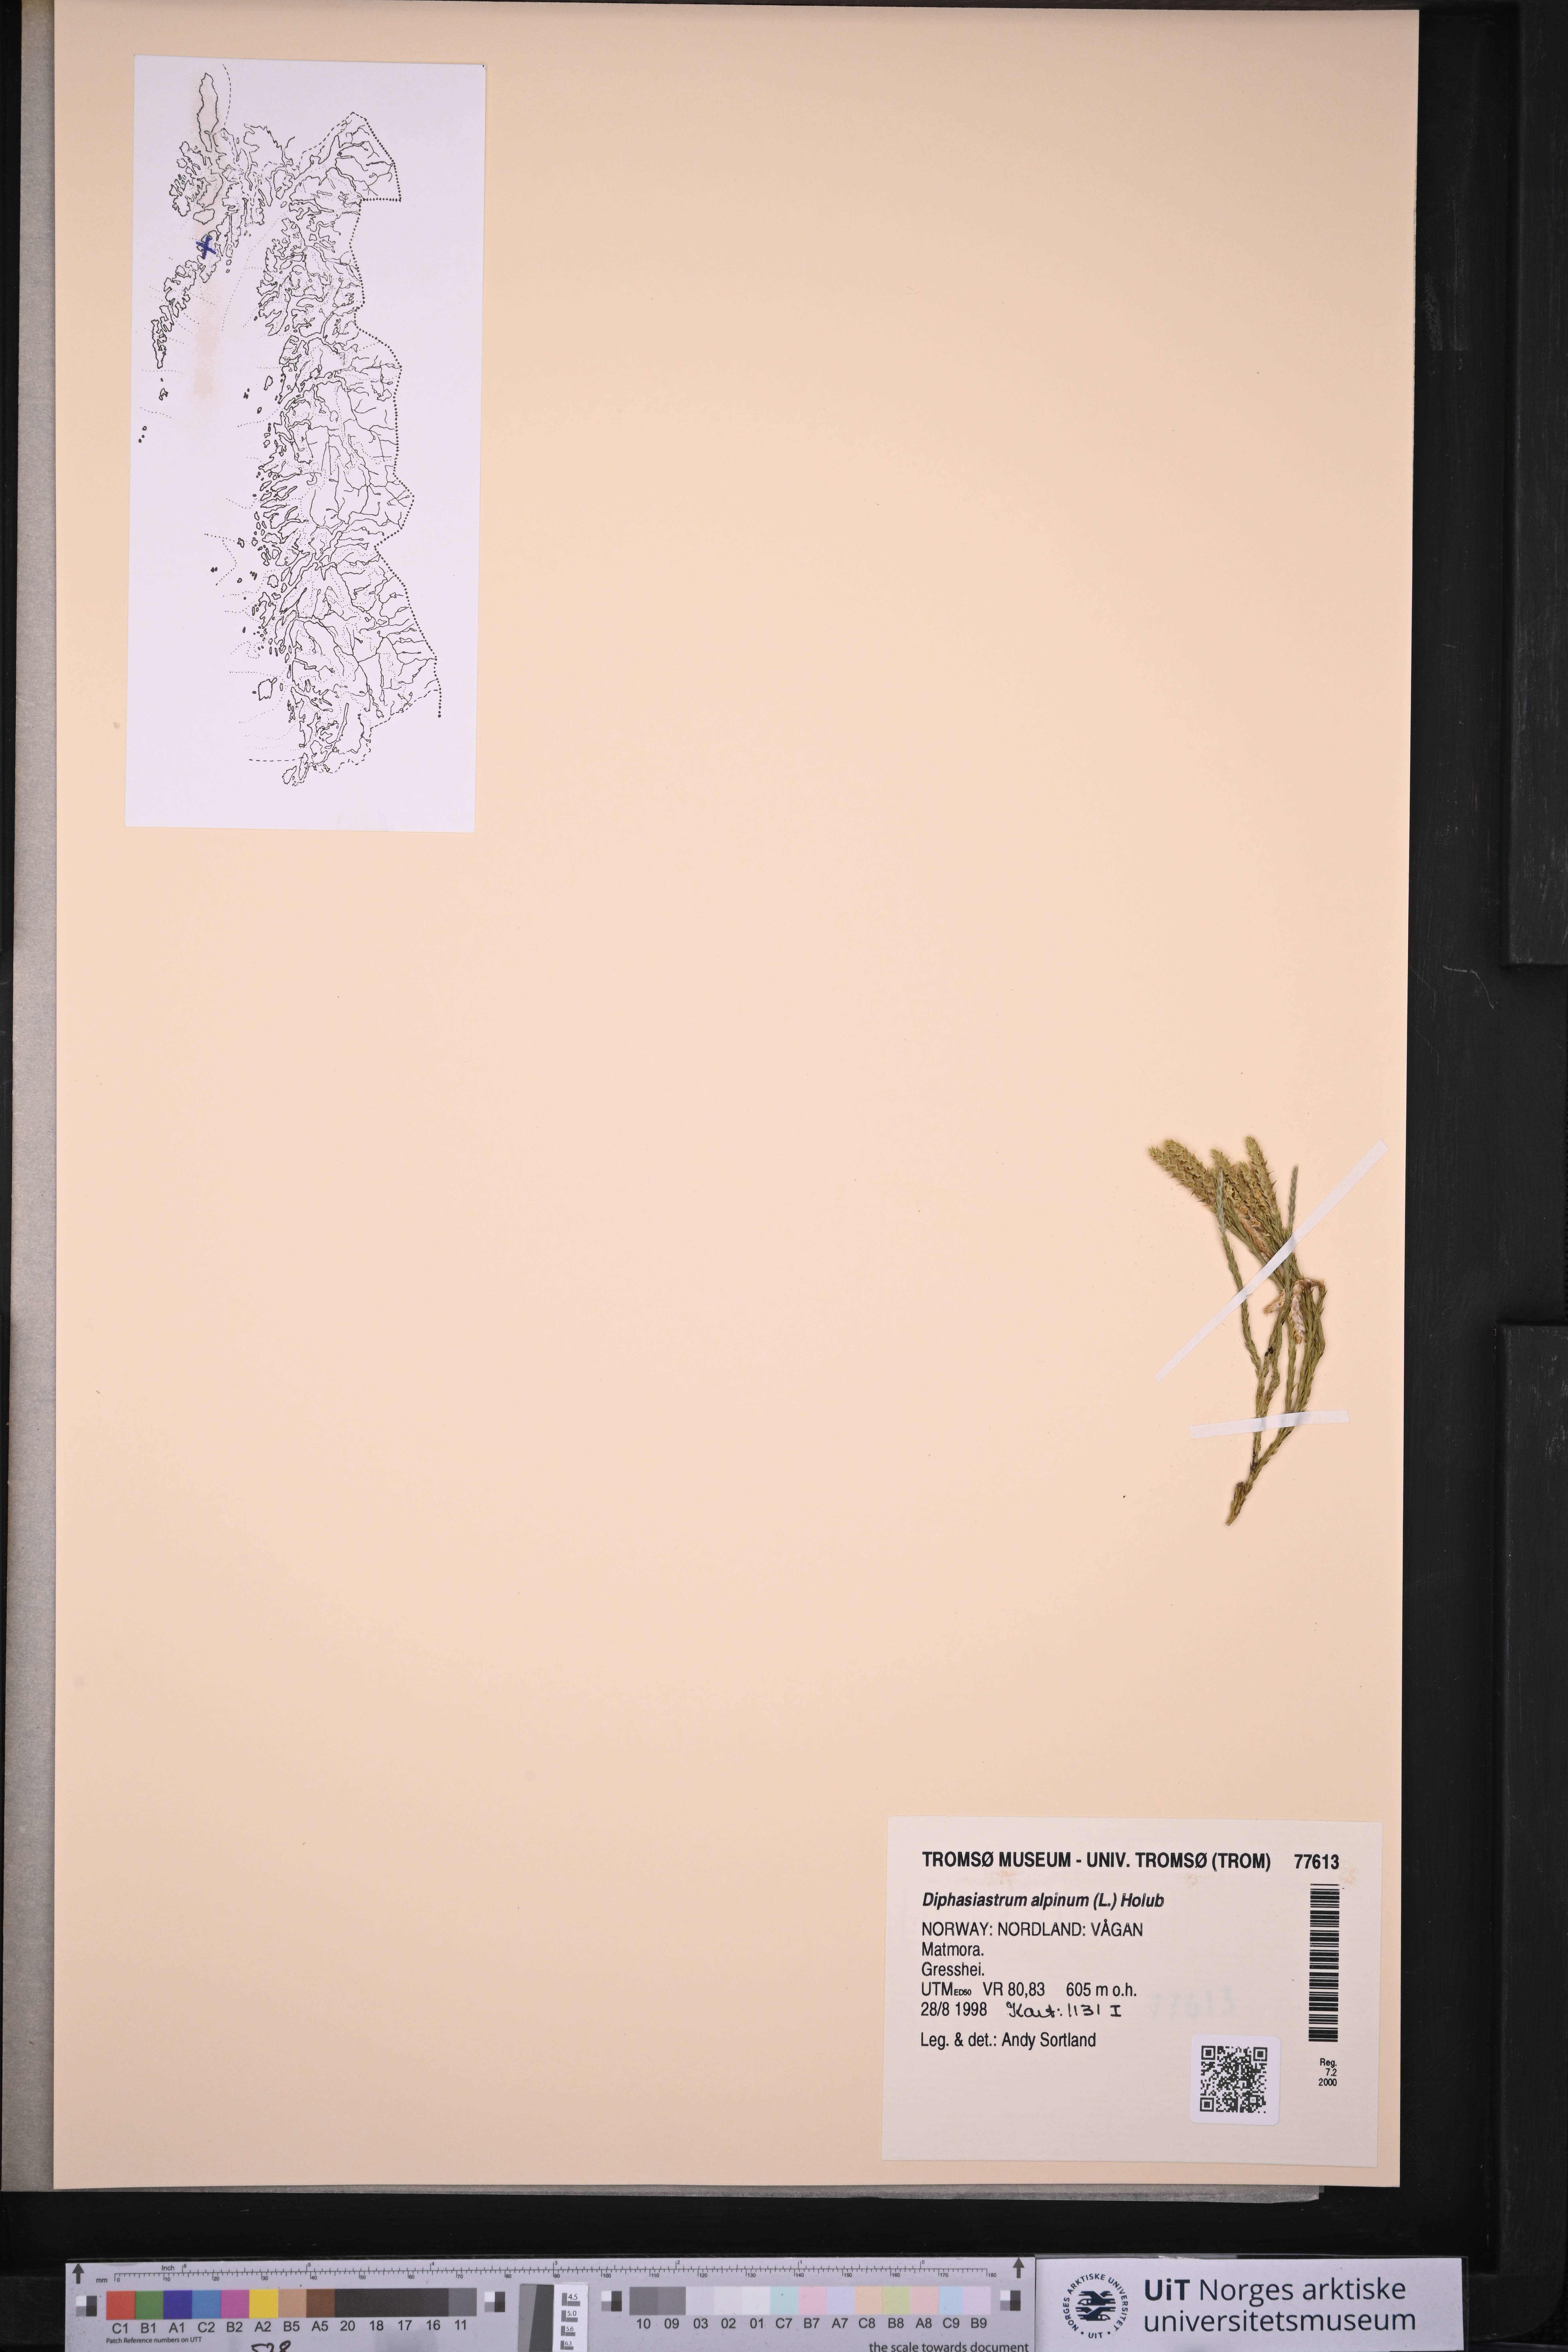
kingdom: Plantae
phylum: Tracheophyta
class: Lycopodiopsida
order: Lycopodiales
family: Lycopodiaceae
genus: Diphasiastrum
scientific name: Diphasiastrum alpinum
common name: Alpine clubmoss
